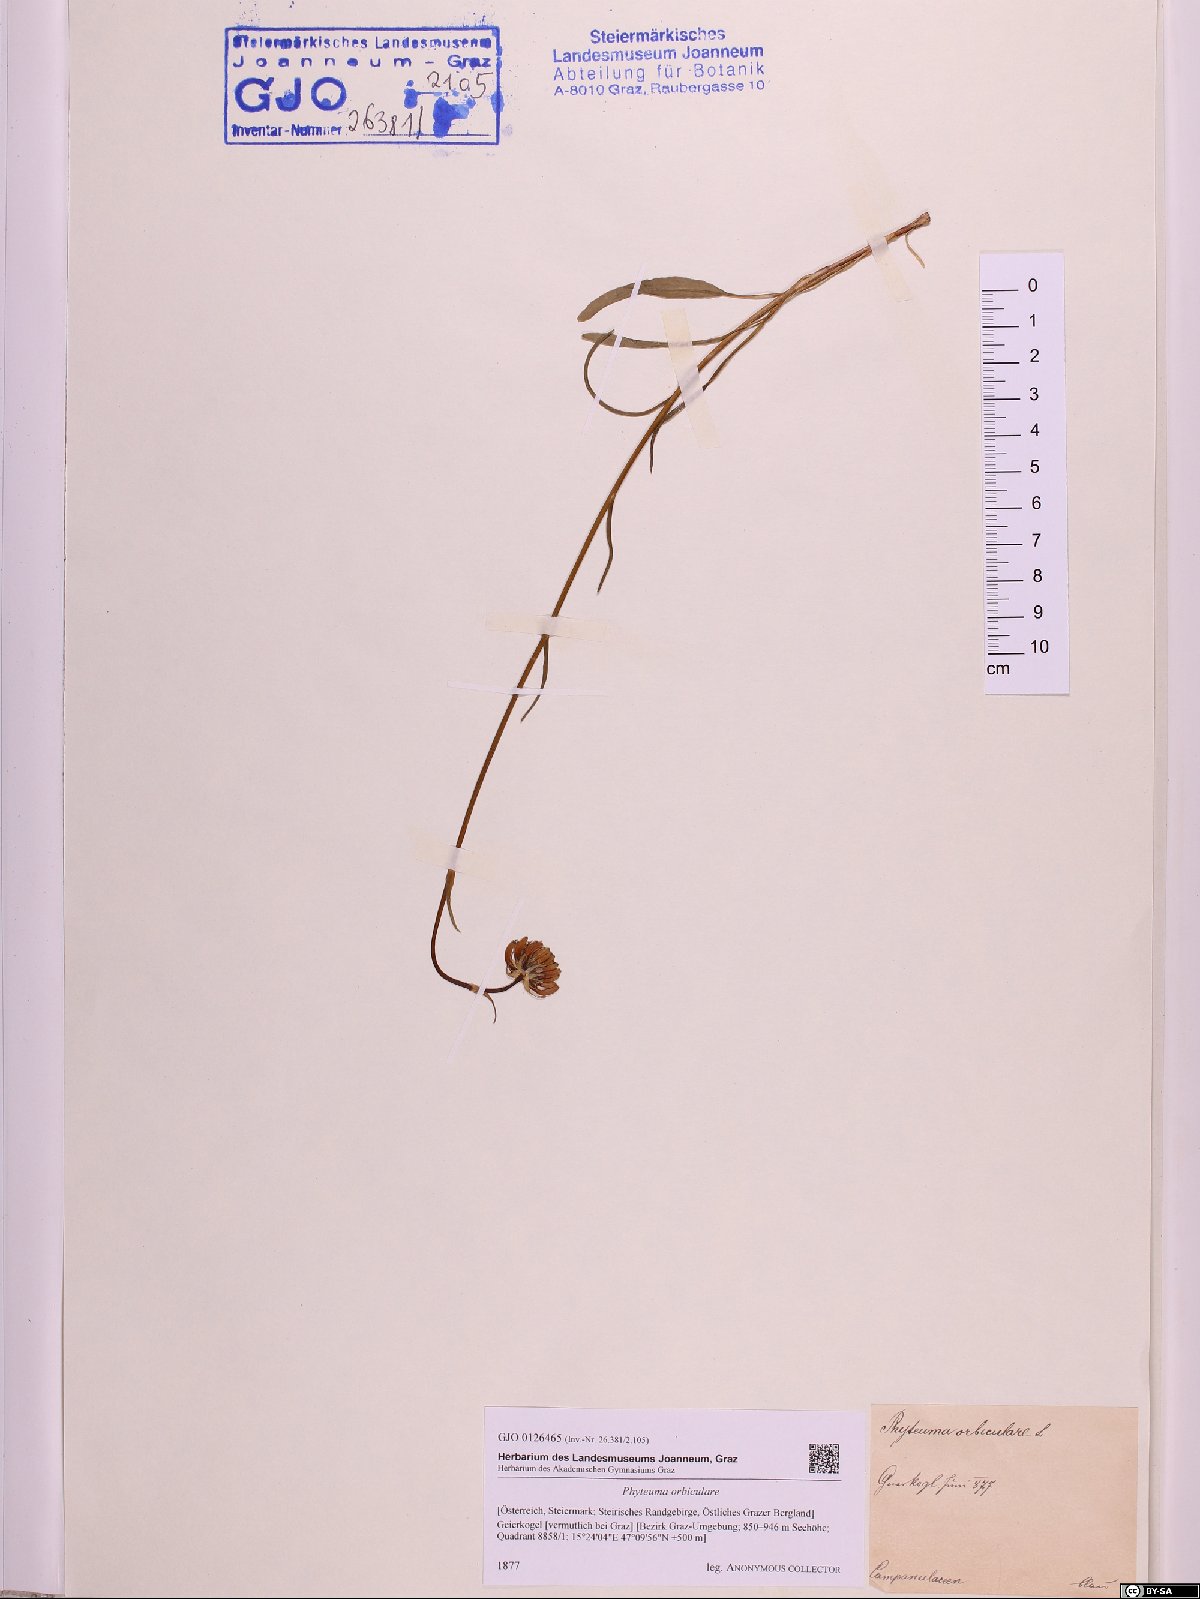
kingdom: Plantae
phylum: Tracheophyta
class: Magnoliopsida
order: Asterales
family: Campanulaceae
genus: Phyteuma
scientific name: Phyteuma orbiculare
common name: Round-headed rampion
